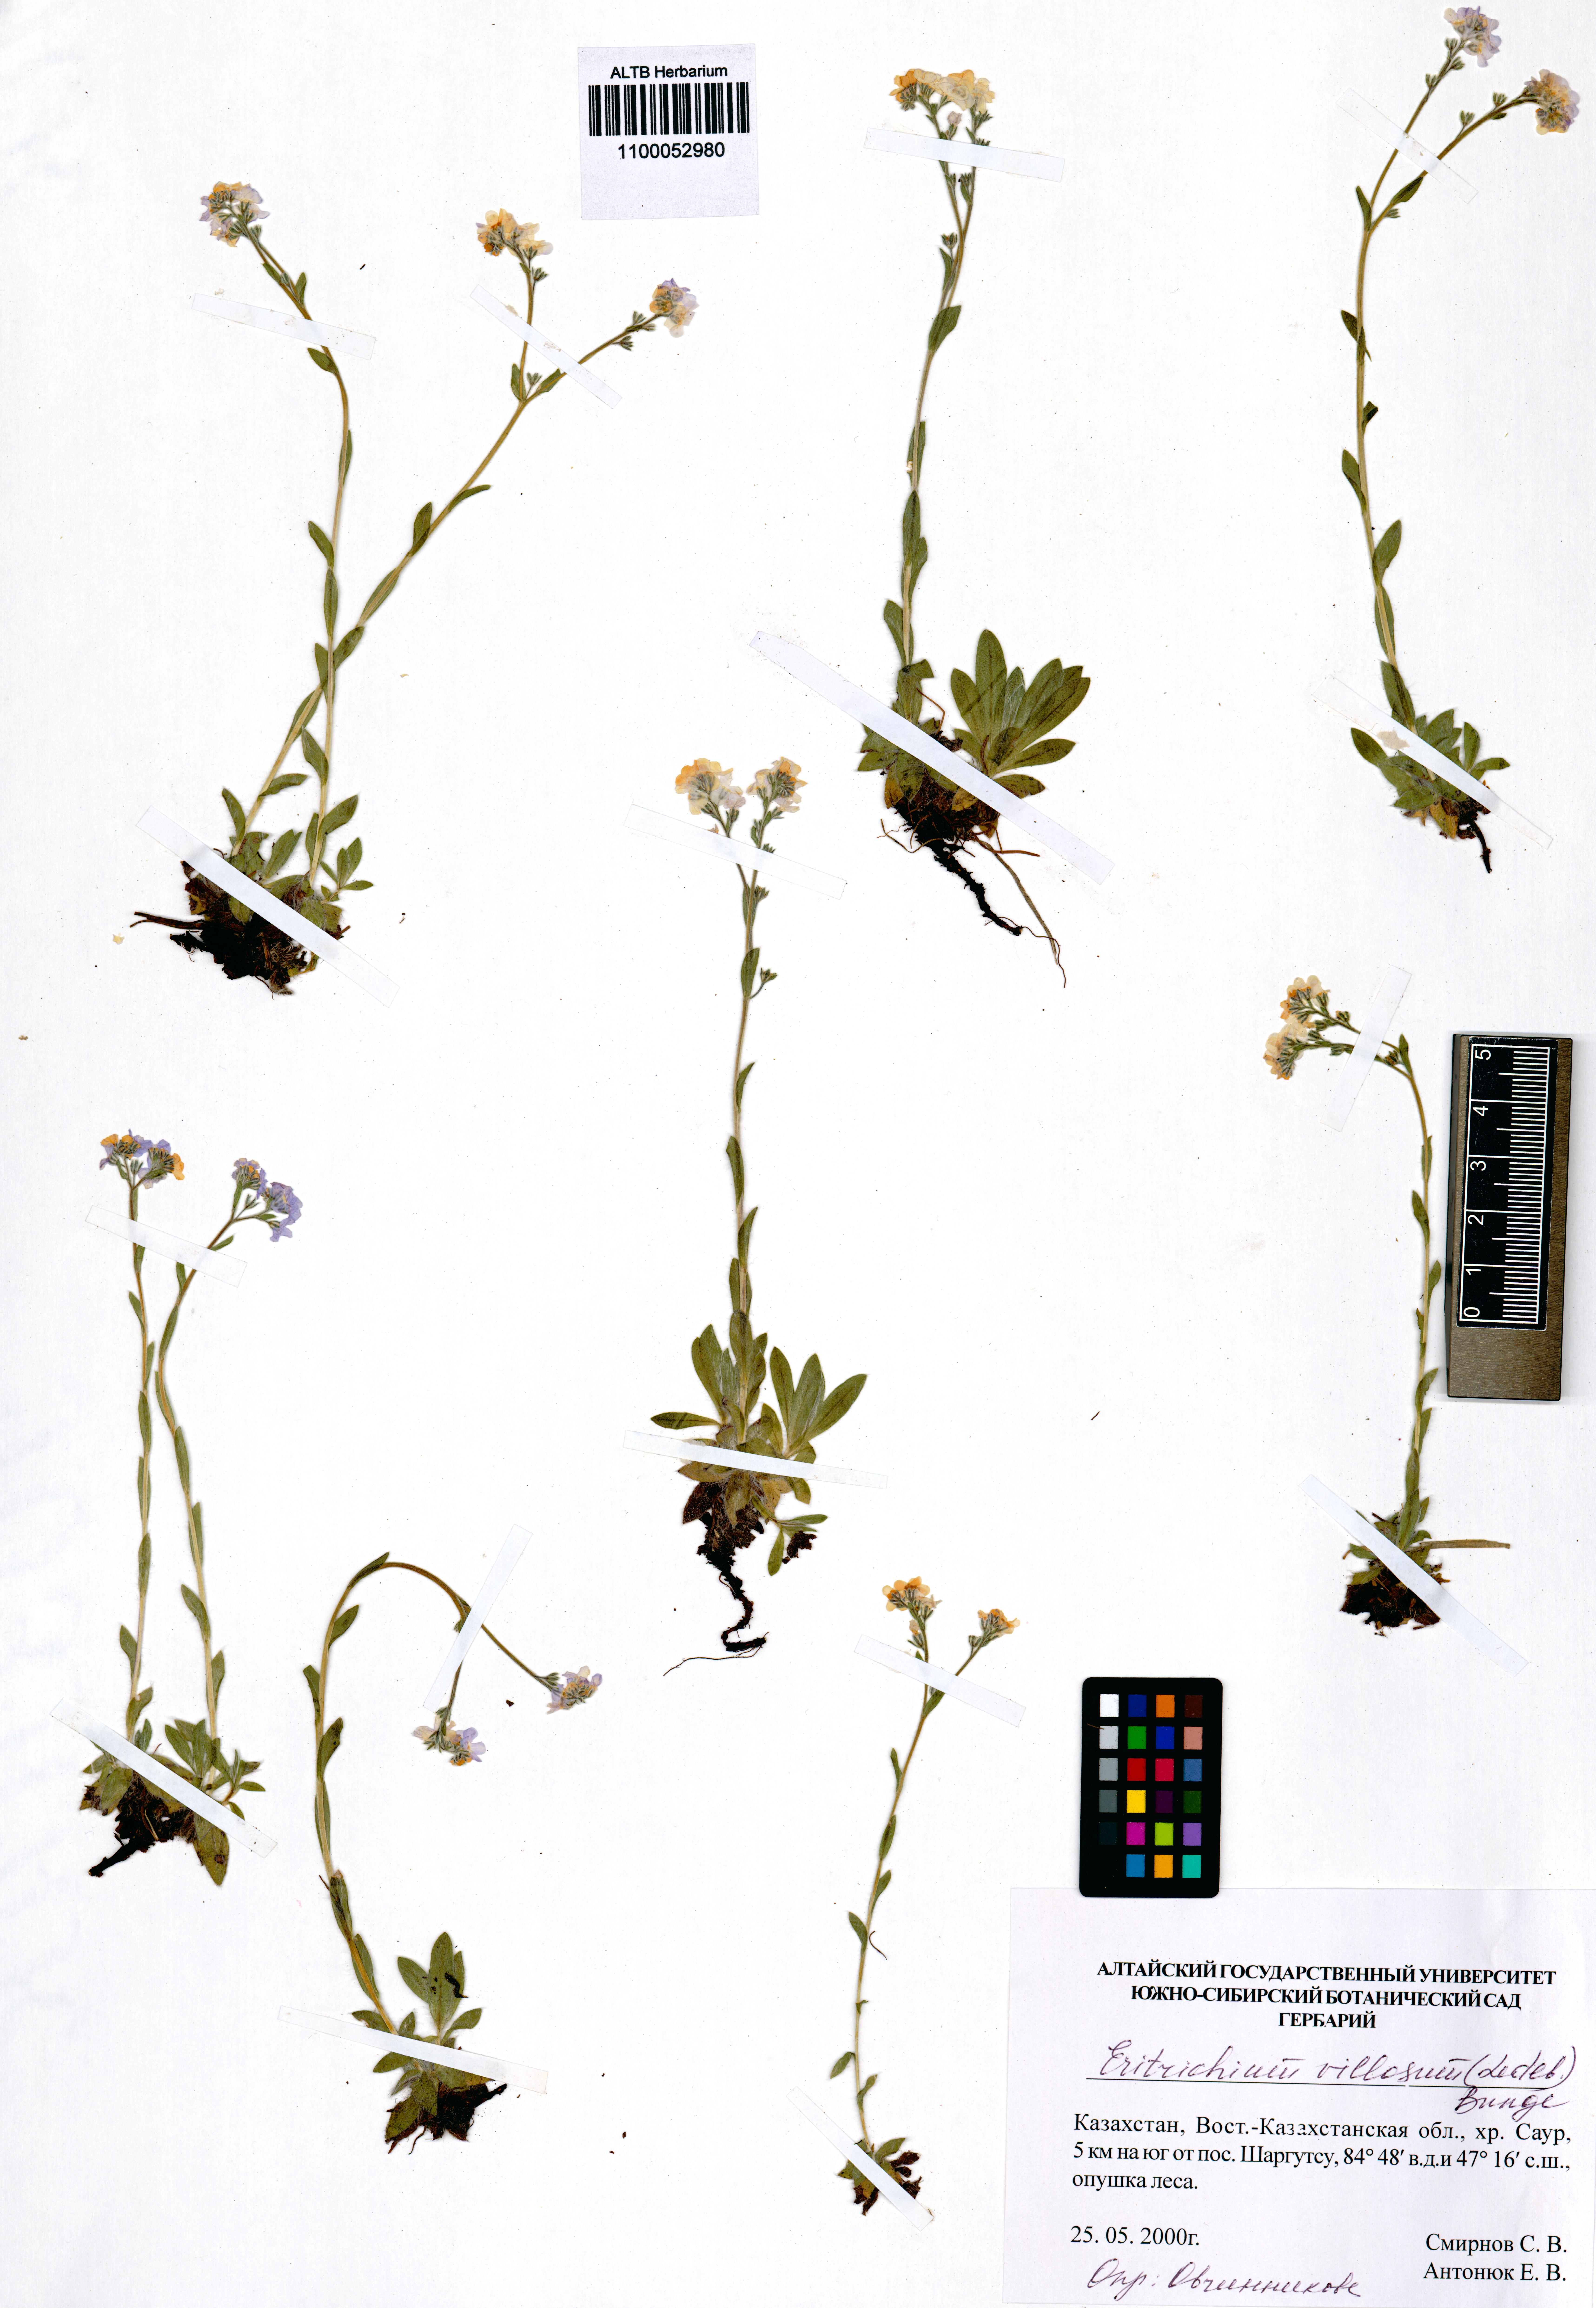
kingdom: Plantae
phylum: Tracheophyta
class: Magnoliopsida
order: Boraginales
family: Boraginaceae
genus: Eritrichium
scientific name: Eritrichium villosum
